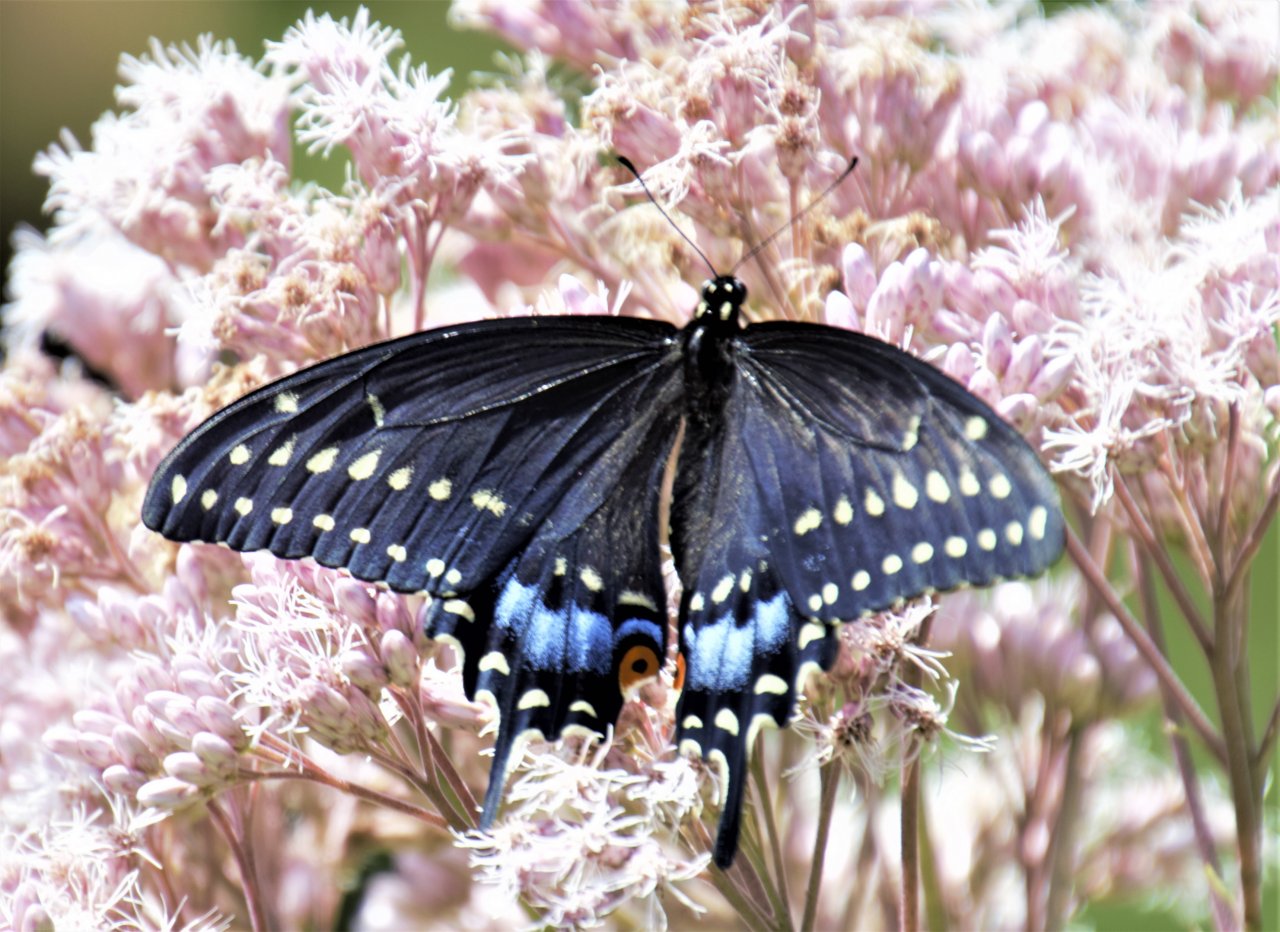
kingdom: Animalia
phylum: Arthropoda
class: Insecta
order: Lepidoptera
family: Papilionidae
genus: Papilio
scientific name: Papilio polyxenes
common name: Black Swallowtail
